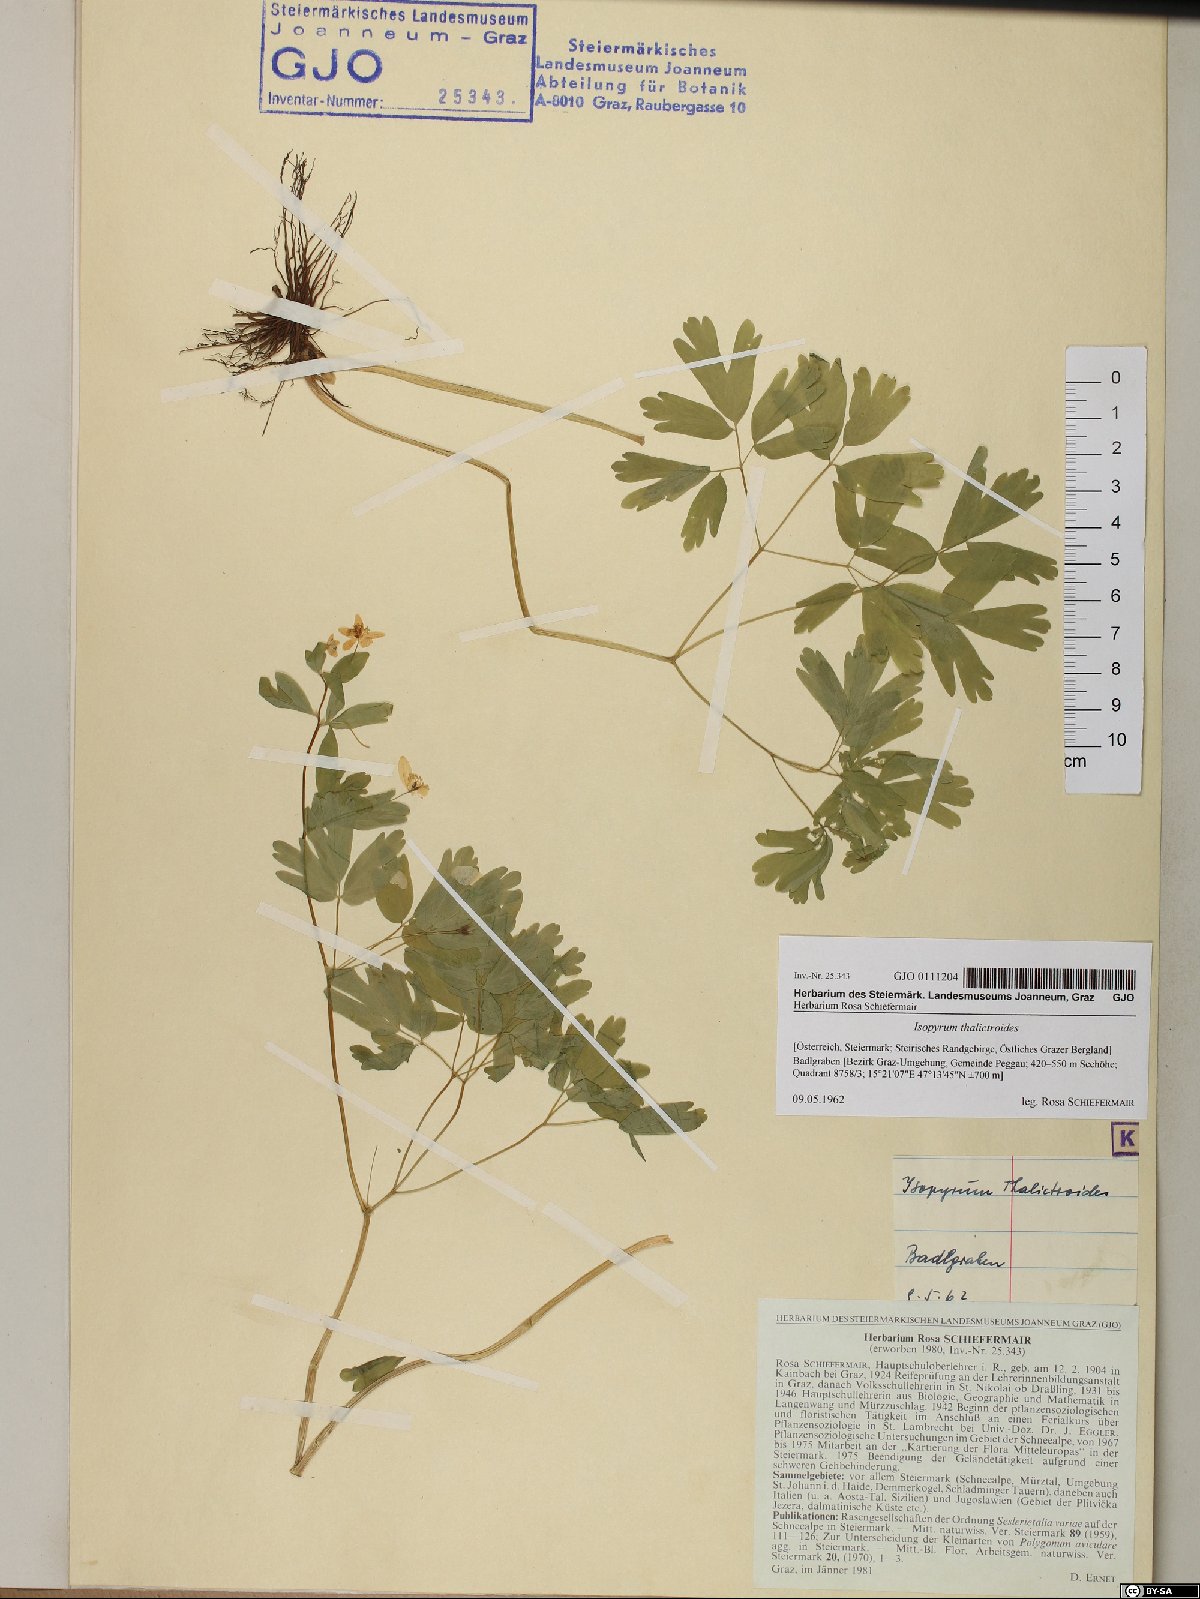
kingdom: Plantae
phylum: Tracheophyta
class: Magnoliopsida
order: Ranunculales
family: Ranunculaceae
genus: Isopyrum
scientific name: Isopyrum thalictroides
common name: Isopyrum
